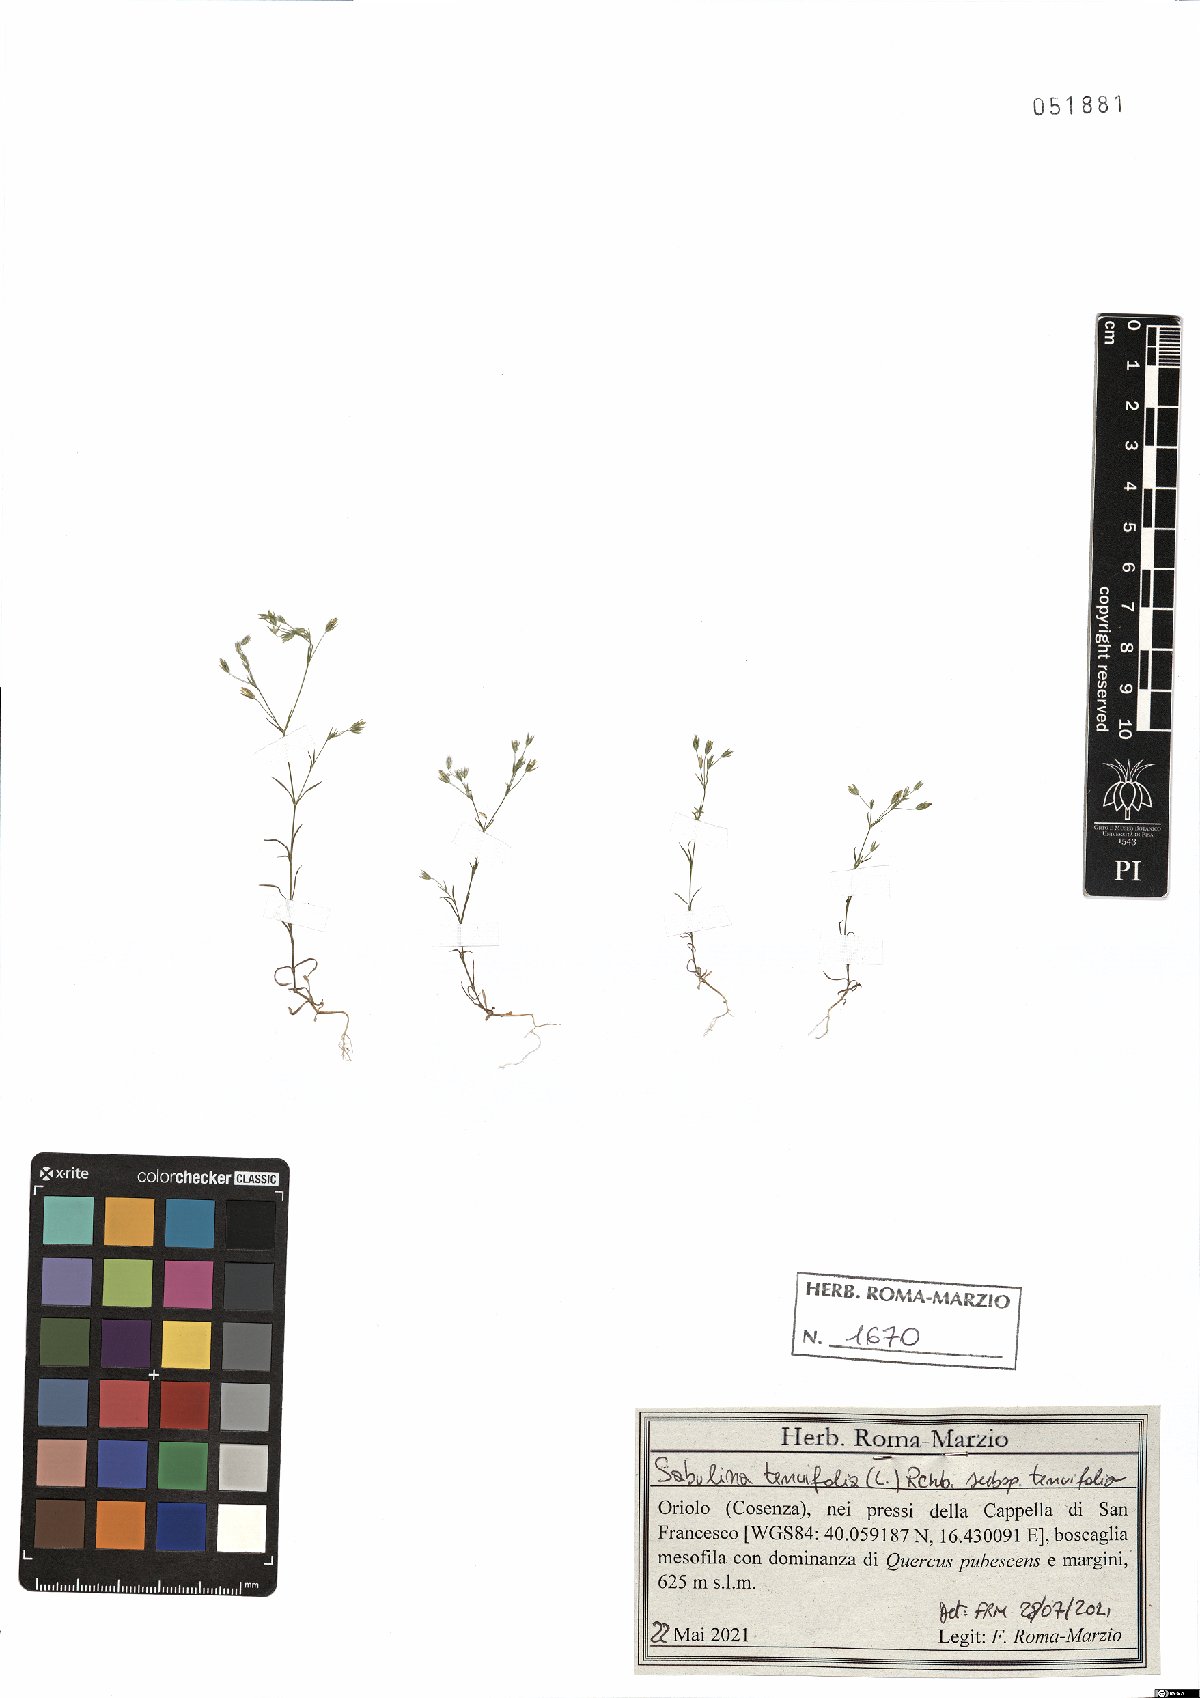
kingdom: Plantae
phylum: Tracheophyta
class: Magnoliopsida
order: Caryophyllales
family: Caryophyllaceae
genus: Sabulina
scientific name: Sabulina tenuifolia
